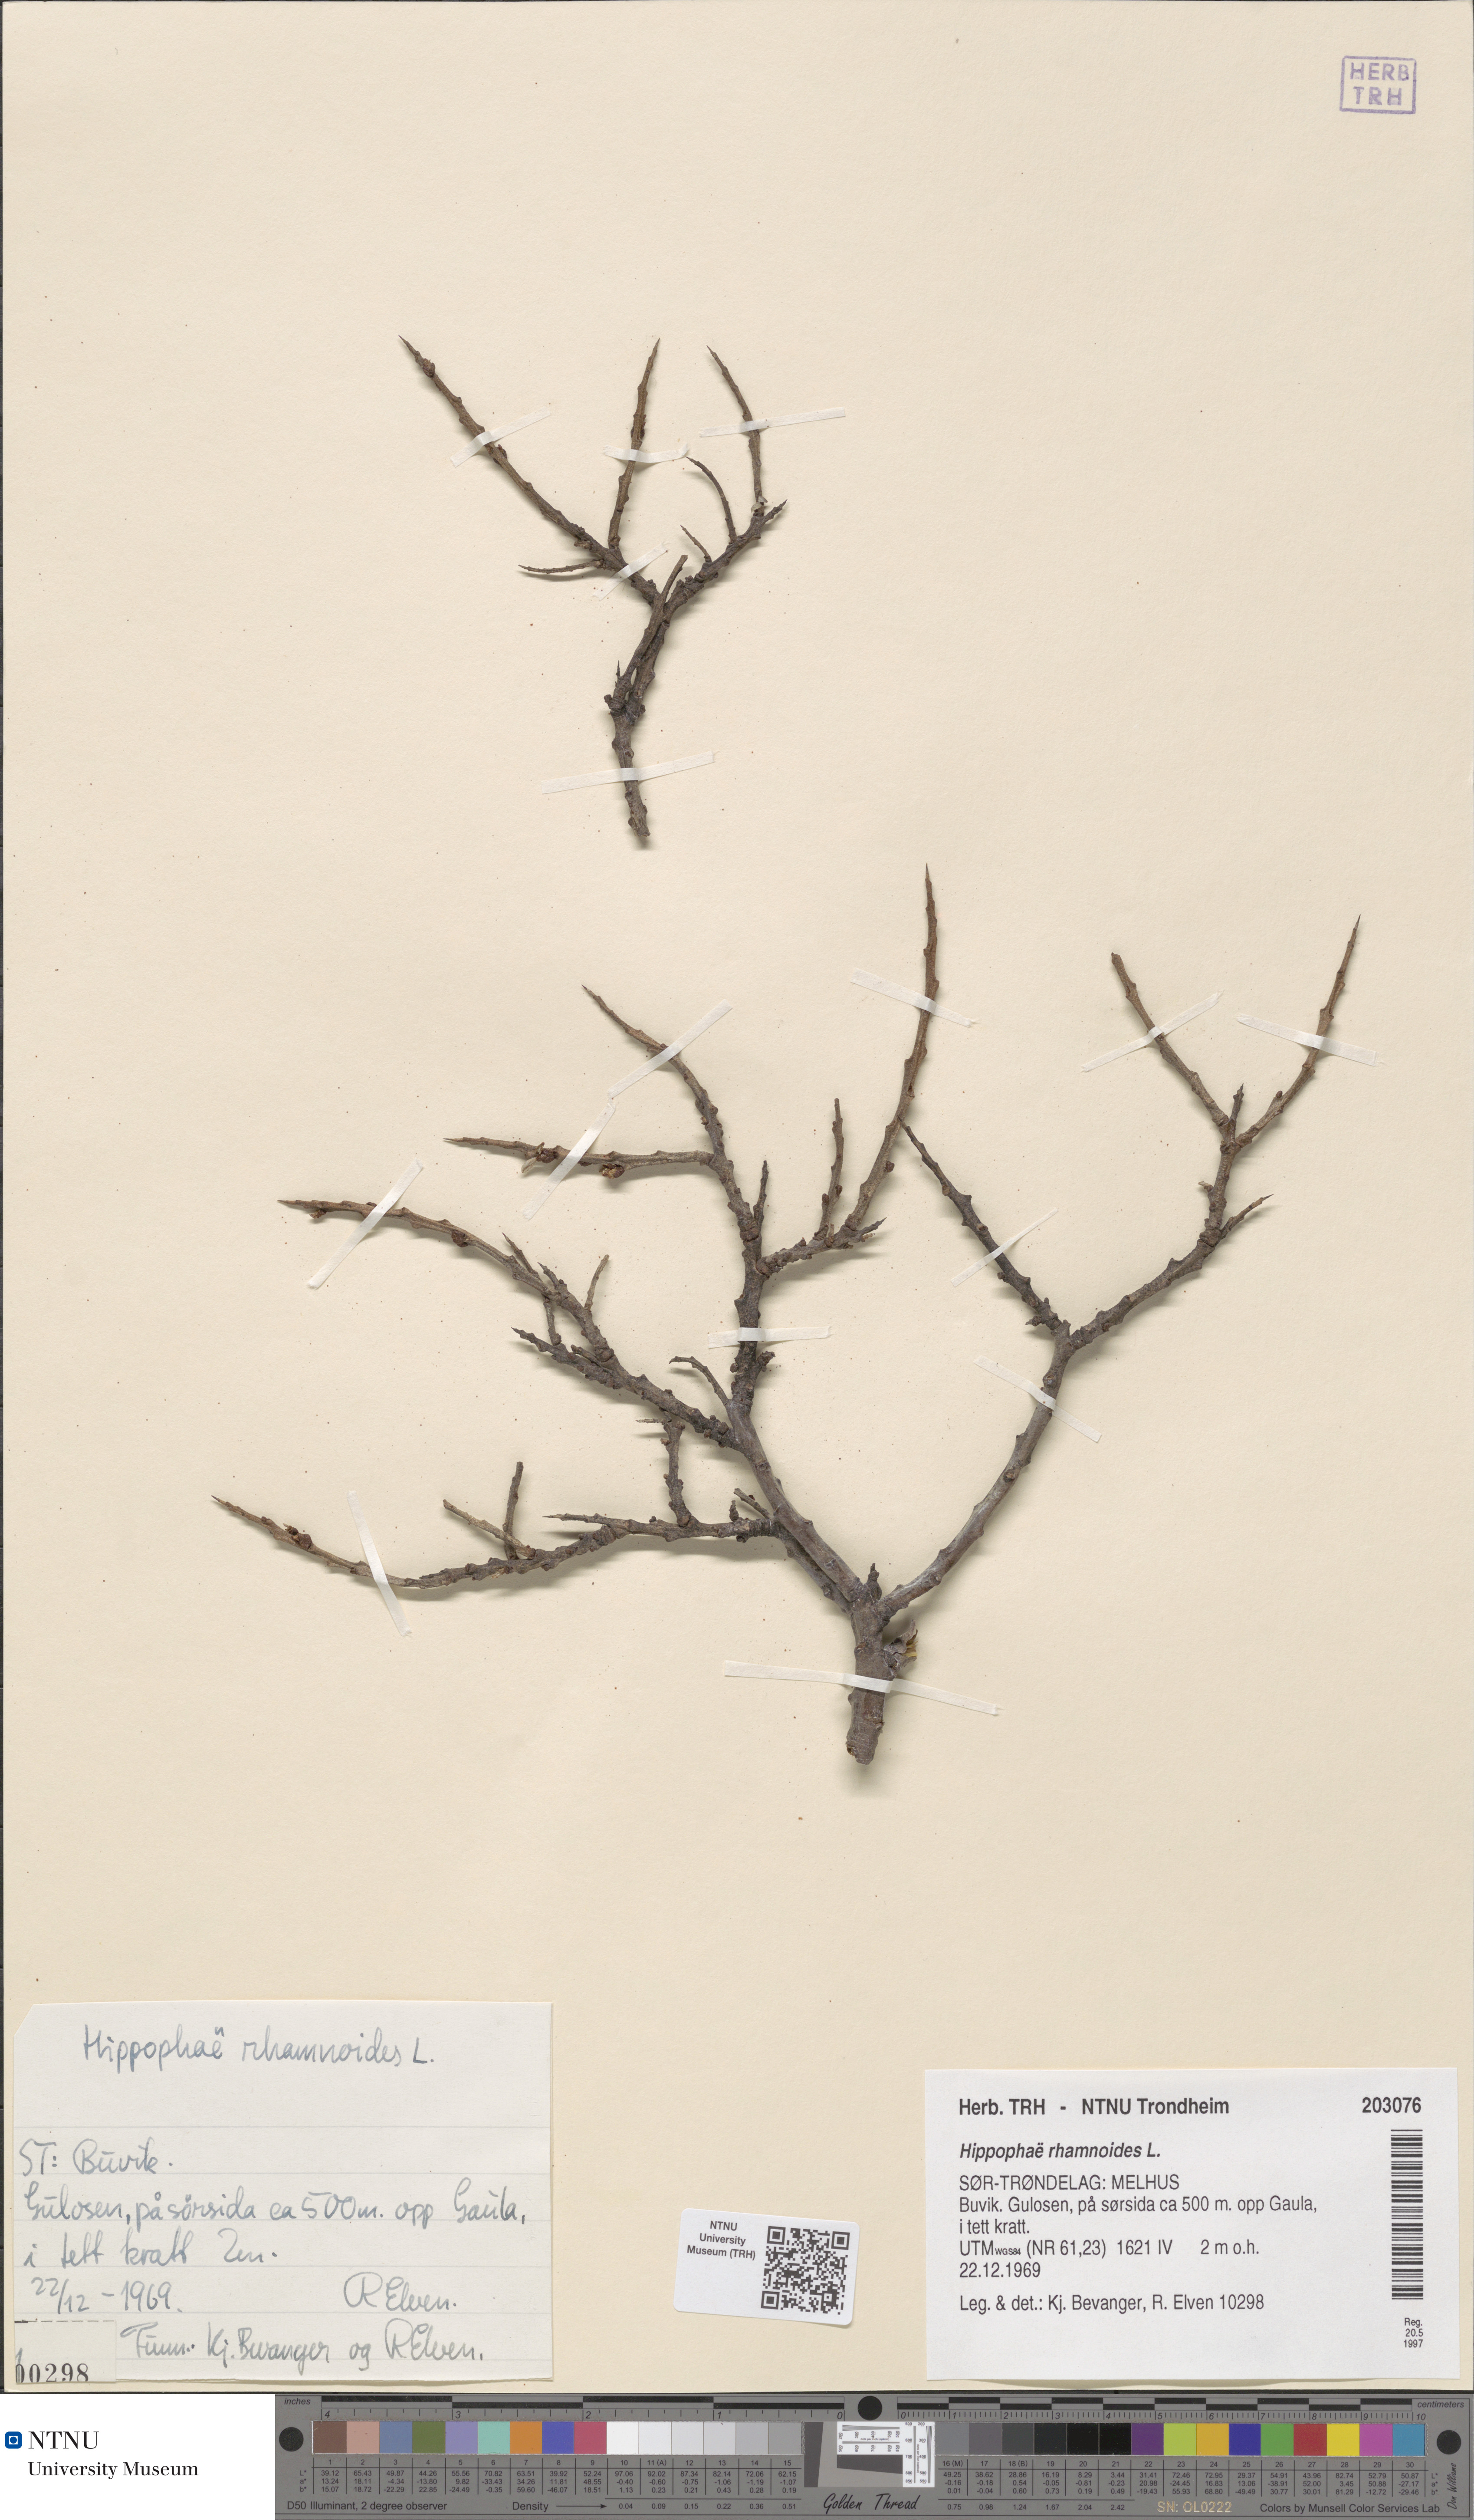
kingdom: Plantae
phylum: Tracheophyta
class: Magnoliopsida
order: Rosales
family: Elaeagnaceae
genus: Hippophae
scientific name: Hippophae rhamnoides
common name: Sea-buckthorn
